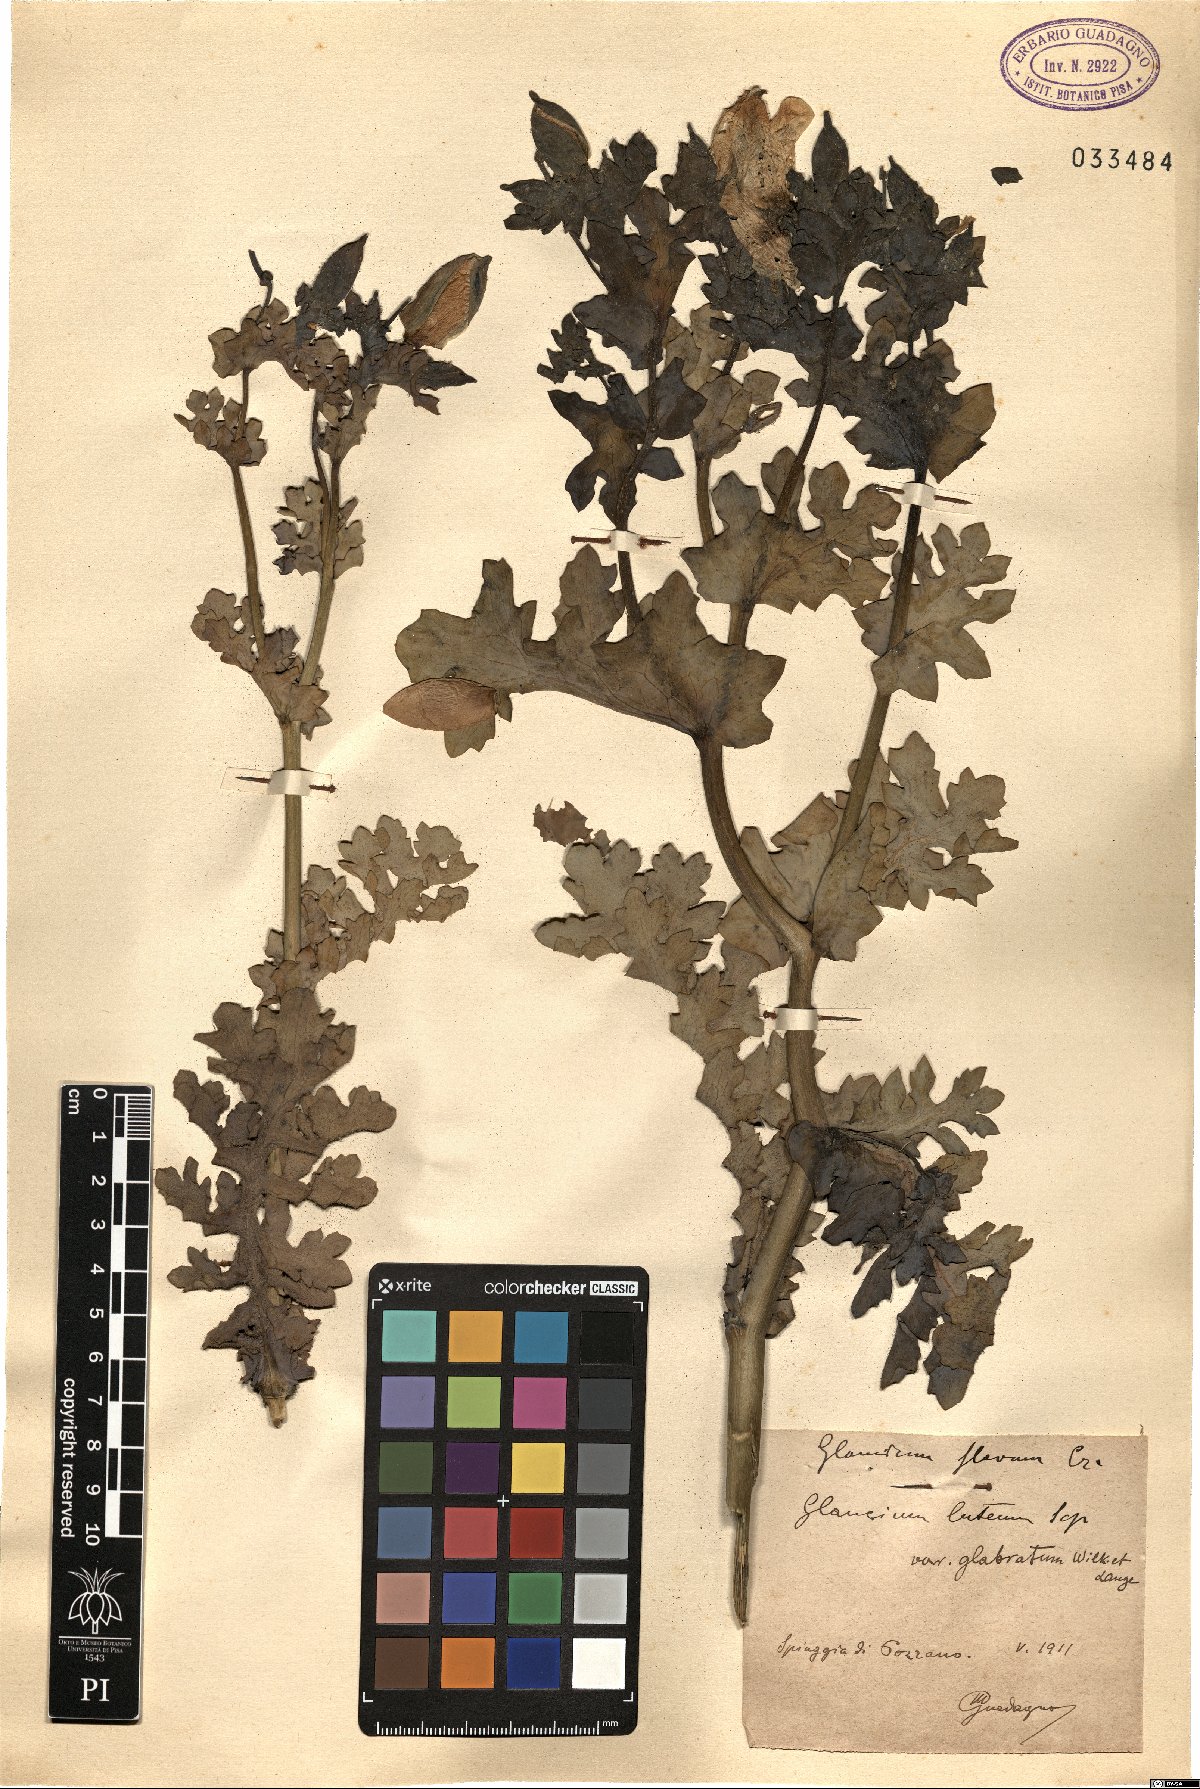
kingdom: Plantae
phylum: Tracheophyta
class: Magnoliopsida
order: Ranunculales
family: Papaveraceae
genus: Glaucium
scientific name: Glaucium flavum
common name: Yellow horned-poppy
